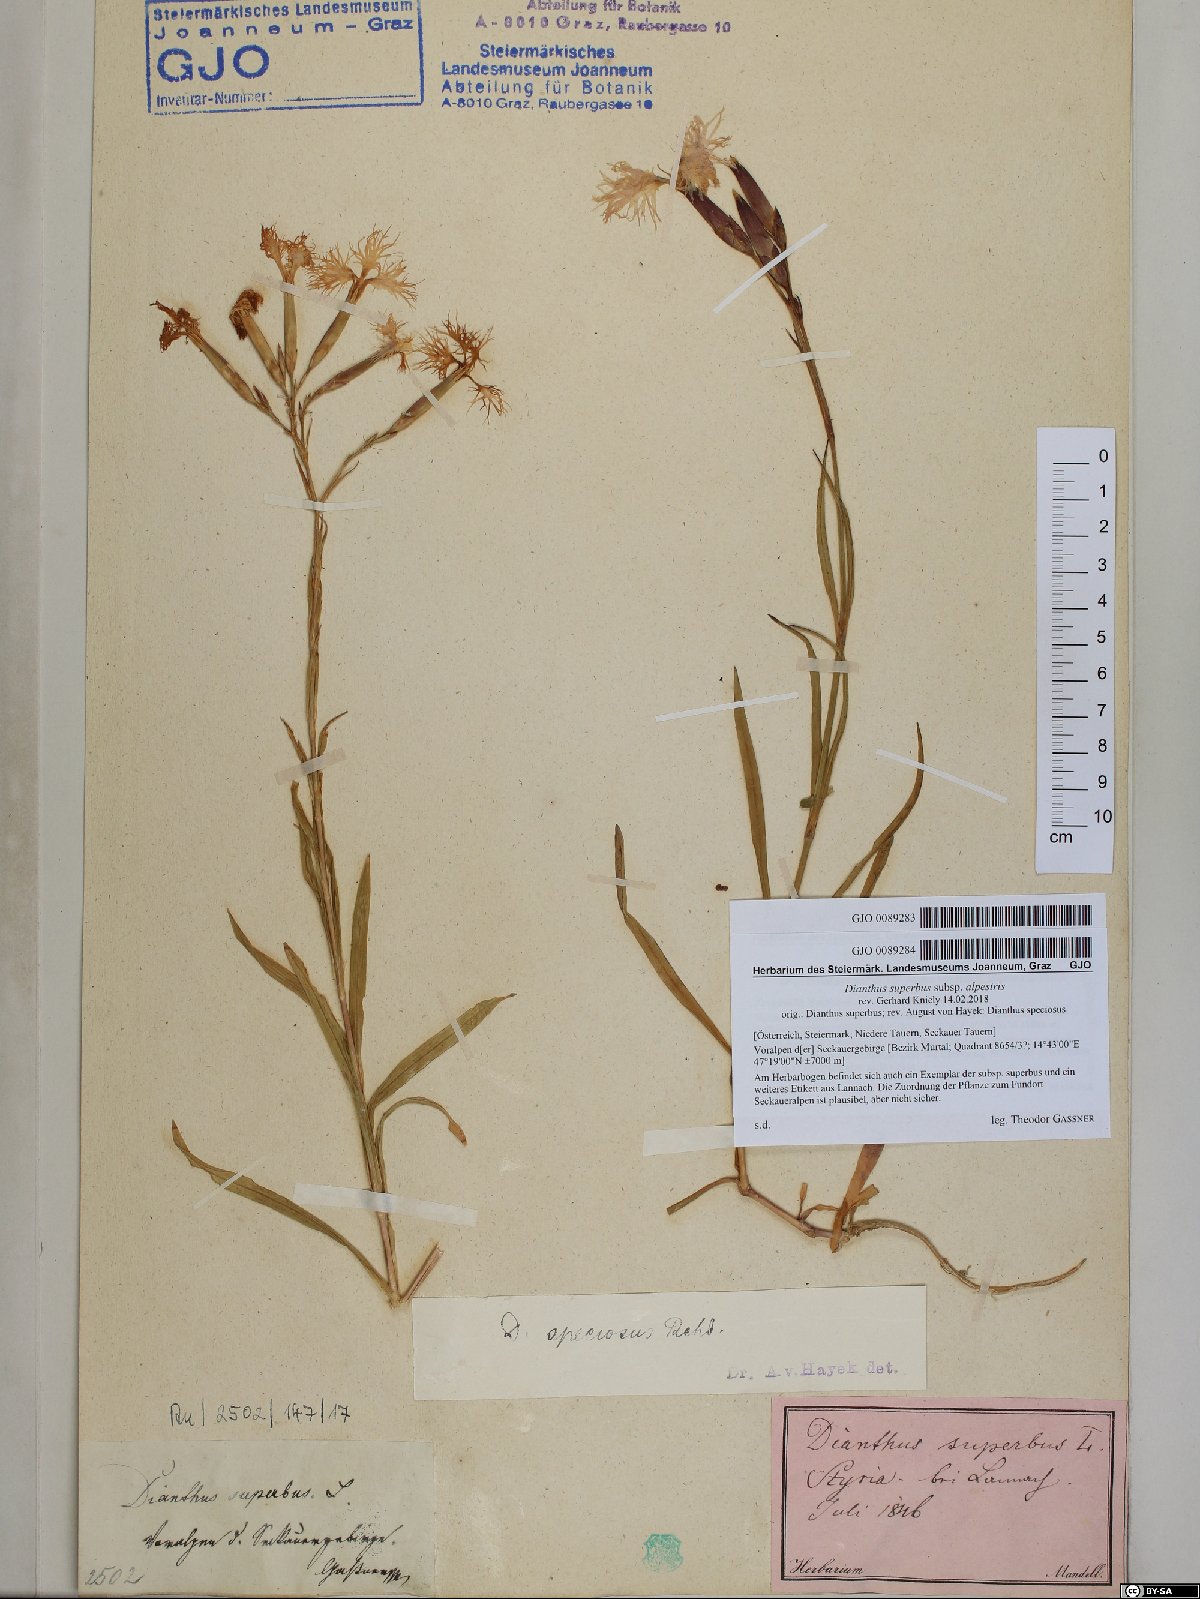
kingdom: Plantae
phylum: Tracheophyta
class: Magnoliopsida
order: Caryophyllales
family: Caryophyllaceae
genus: Dianthus
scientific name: Dianthus superbus
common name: Fringed pink
